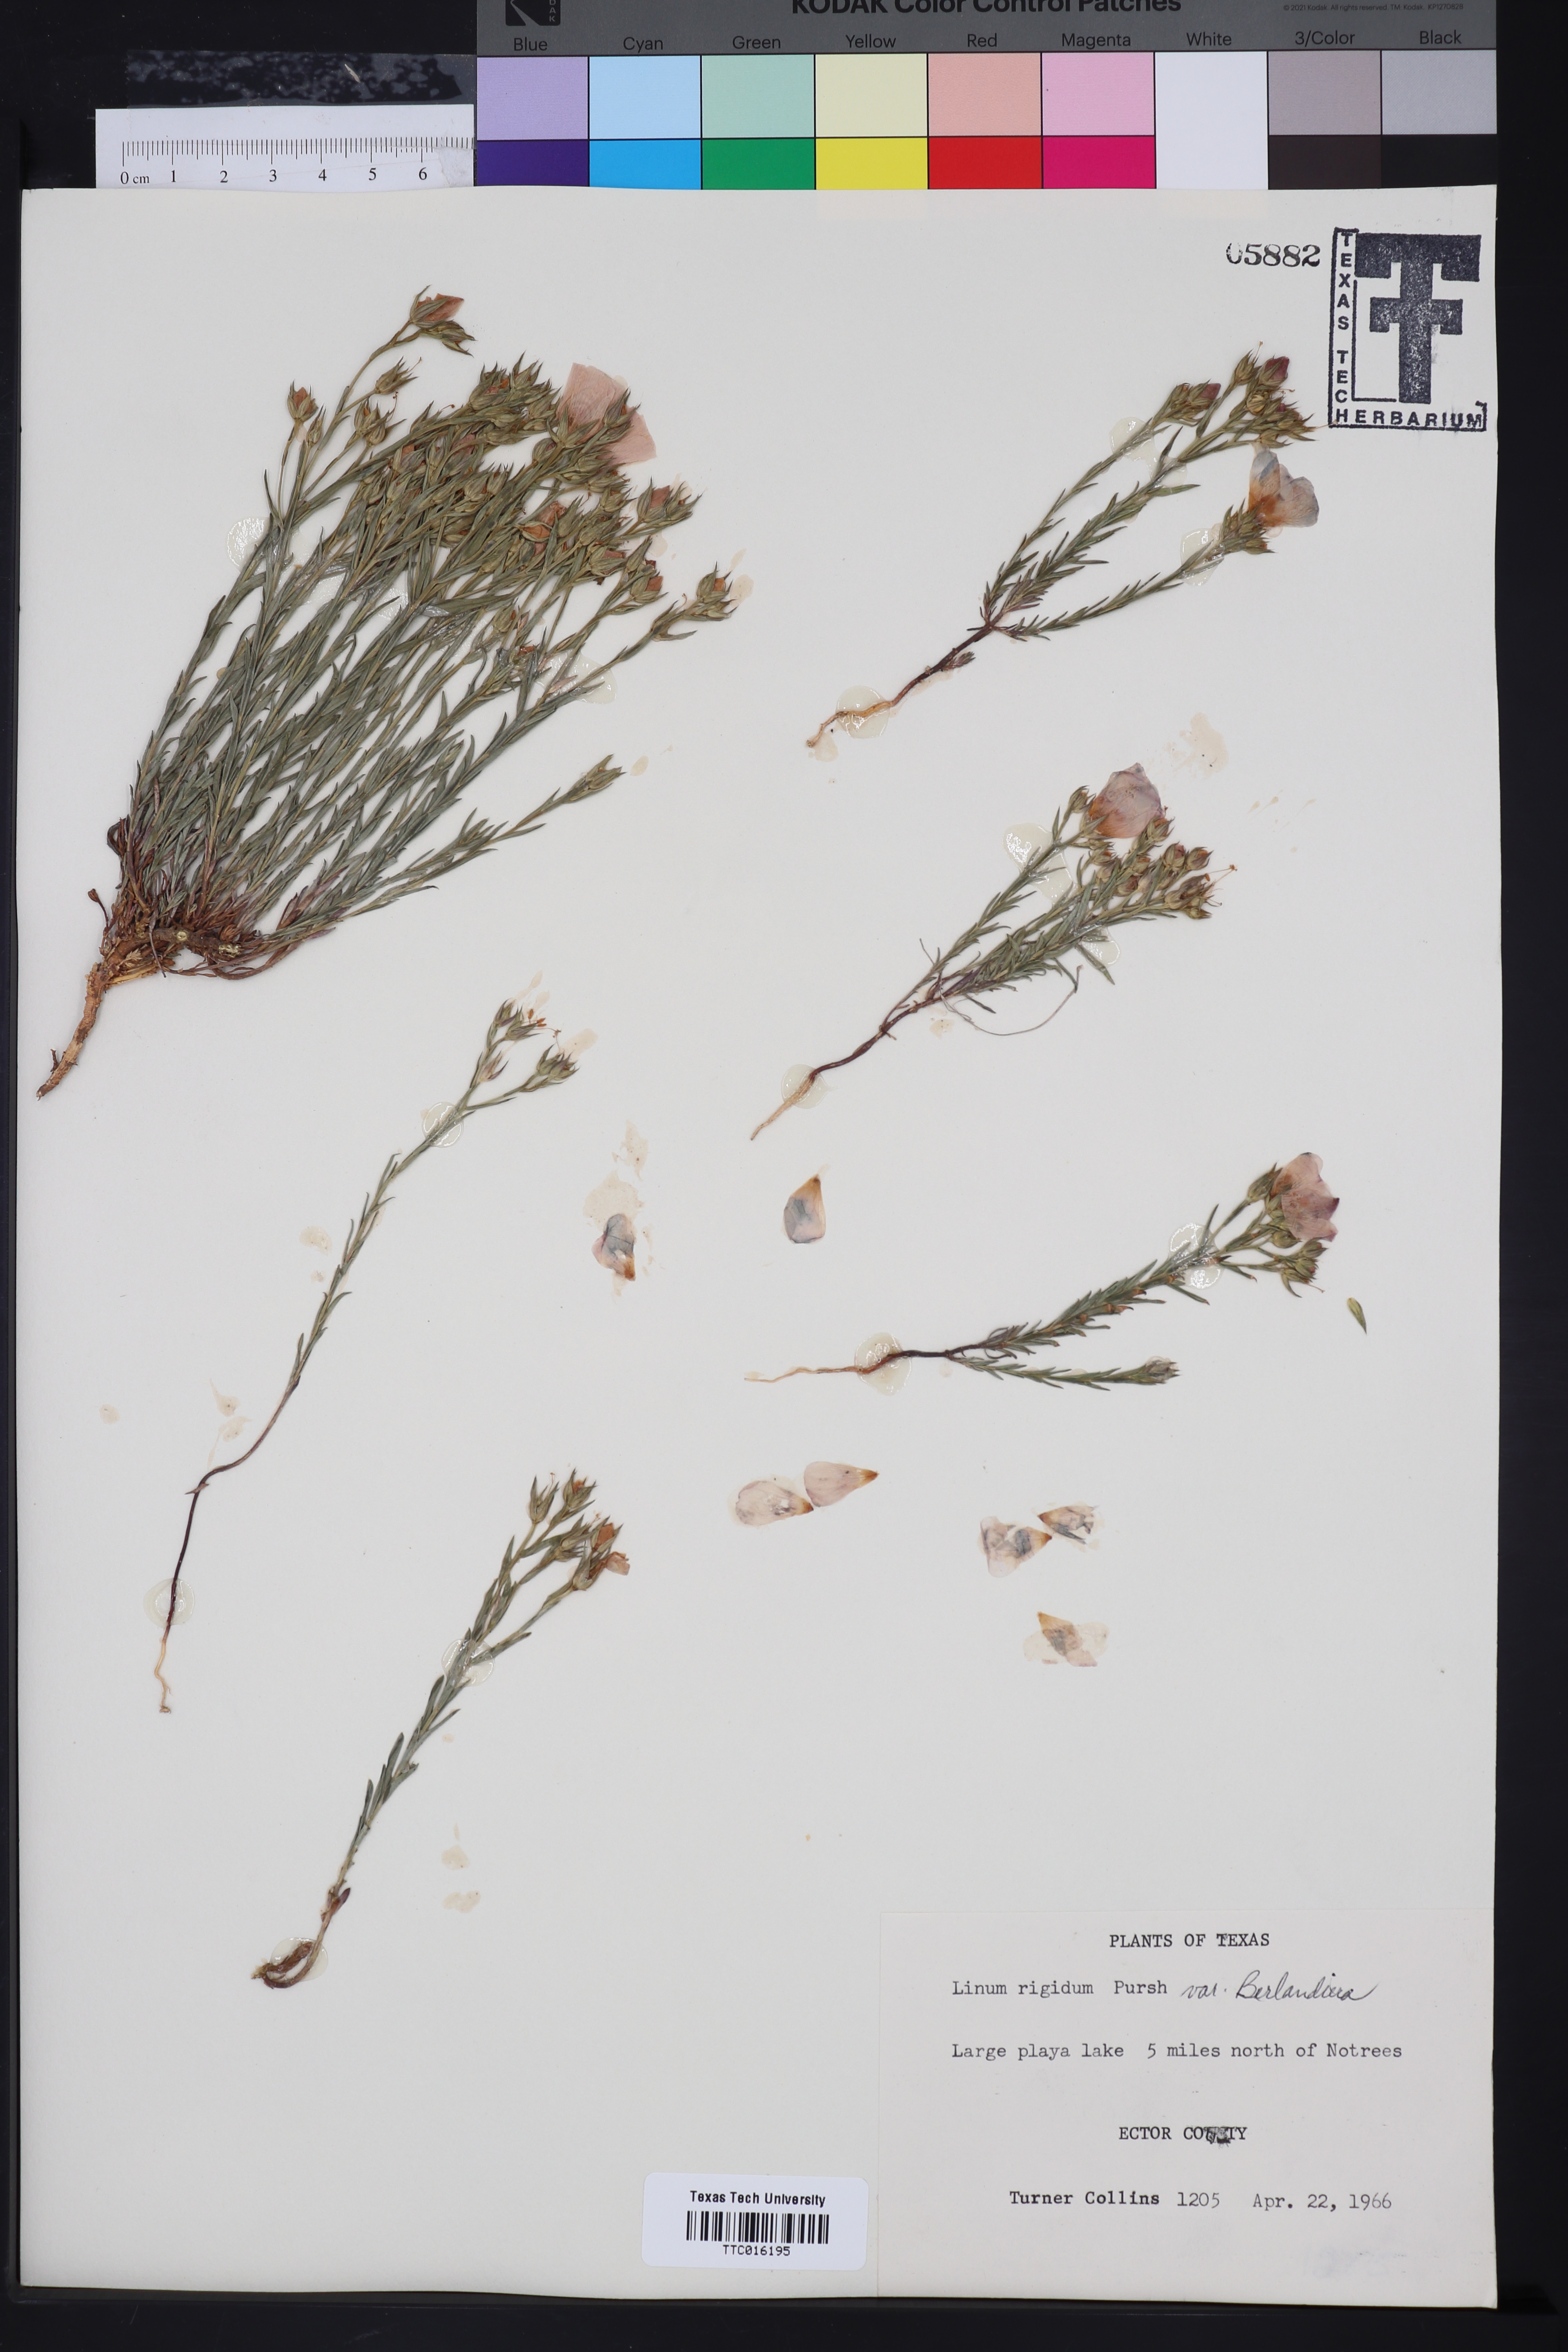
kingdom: Plantae
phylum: Tracheophyta
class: Magnoliopsida
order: Malpighiales
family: Linaceae
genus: Linum
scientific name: Linum berlandieri
